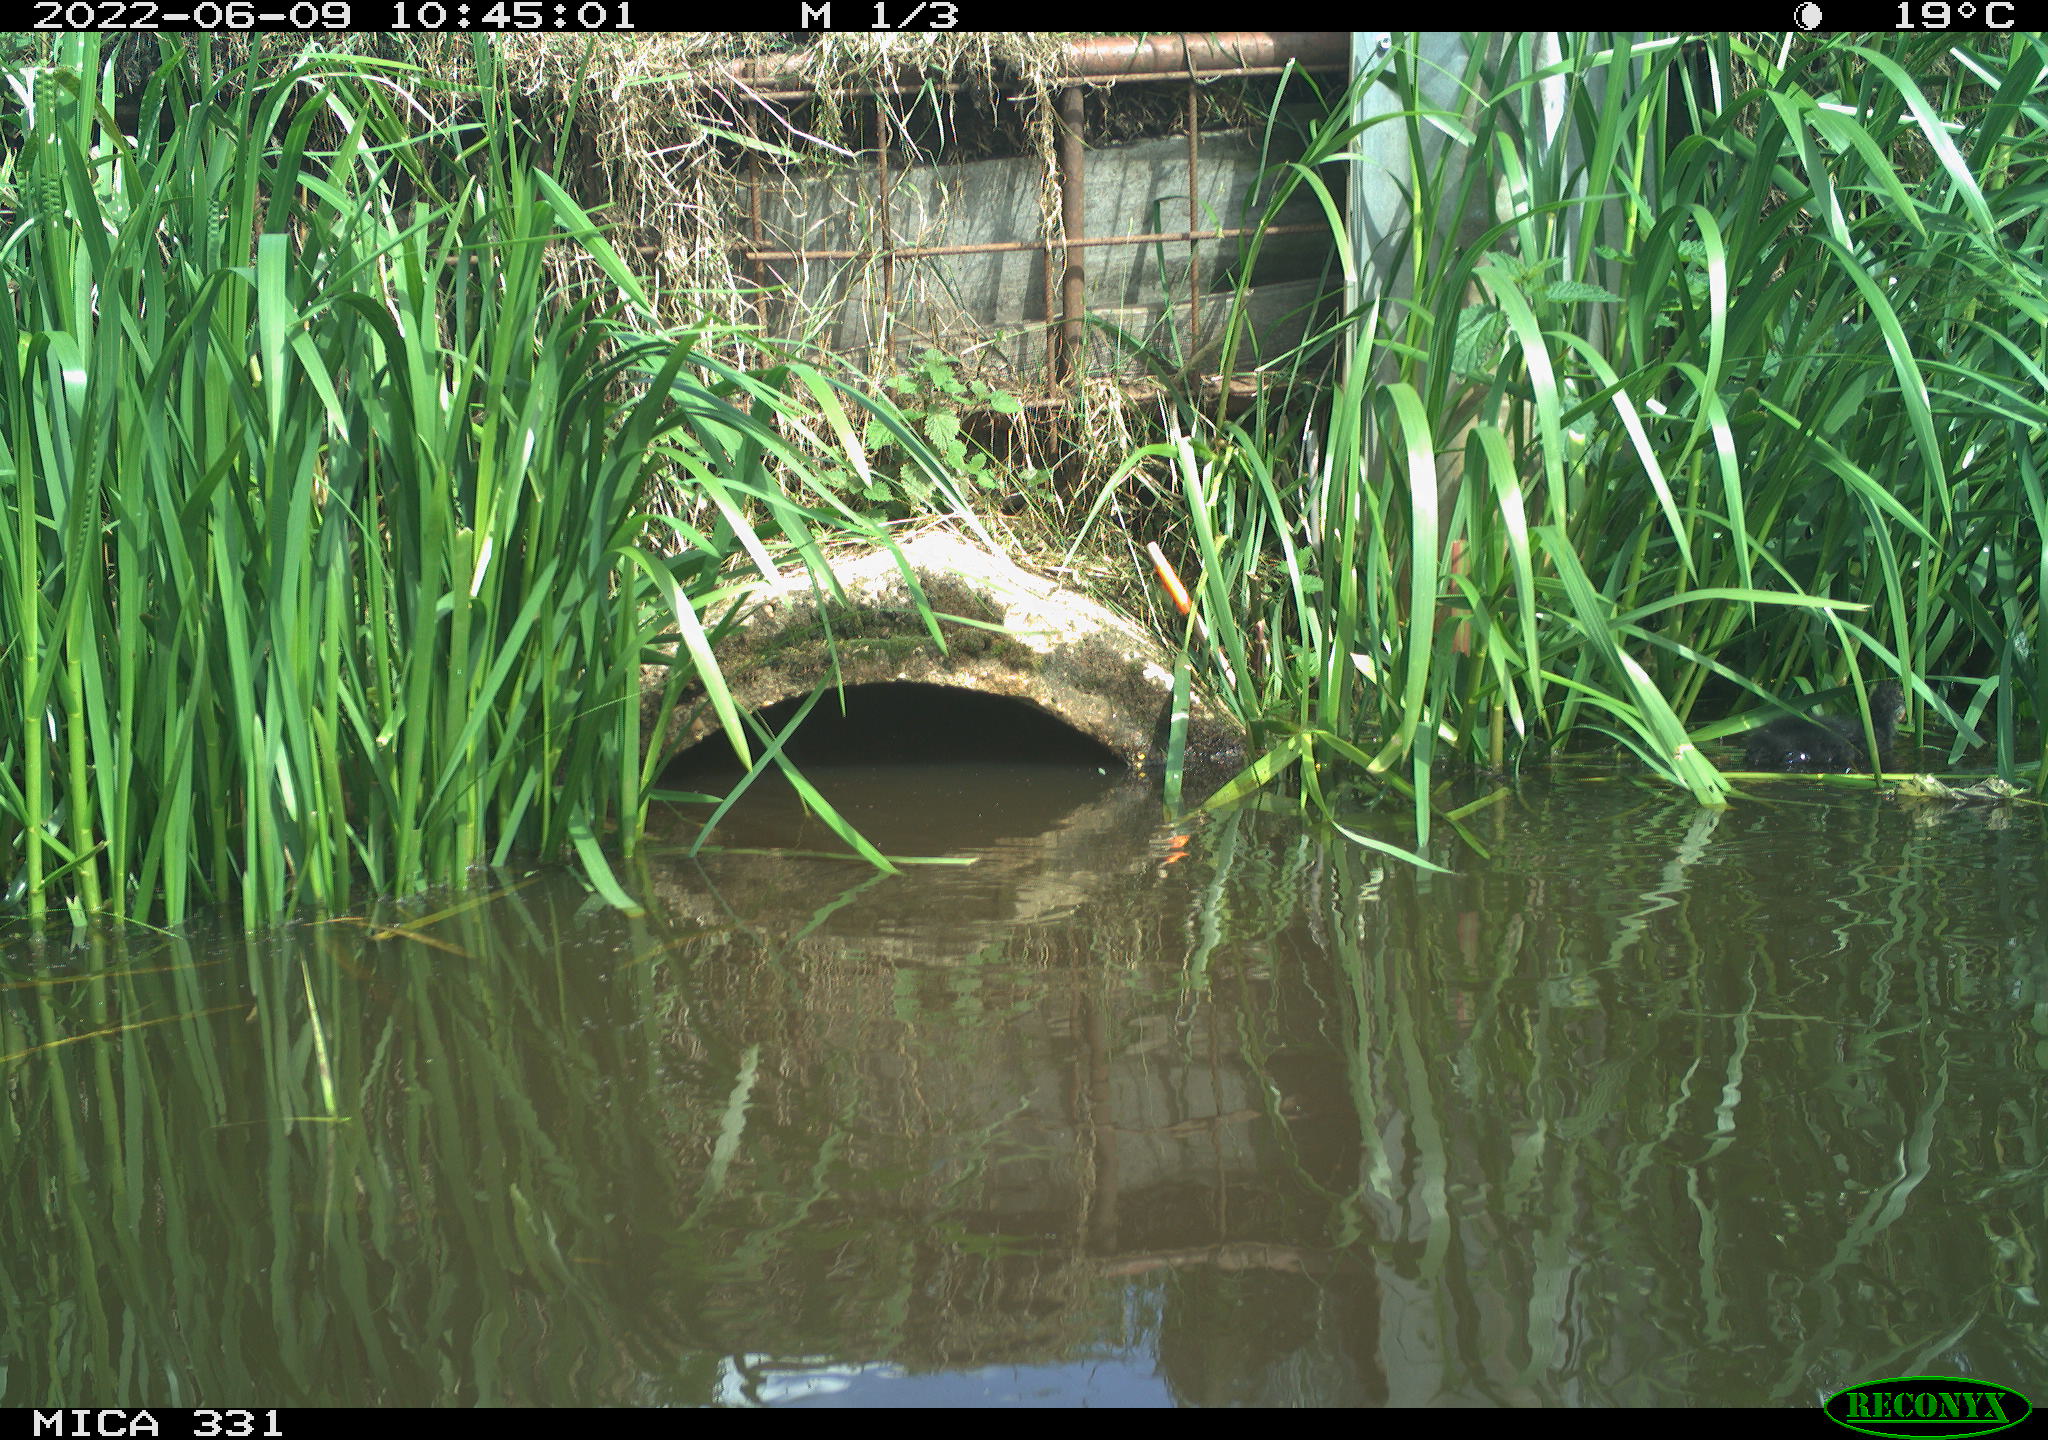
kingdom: Animalia
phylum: Chordata
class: Aves
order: Gruiformes
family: Rallidae
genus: Fulica
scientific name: Fulica atra
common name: Eurasian coot
